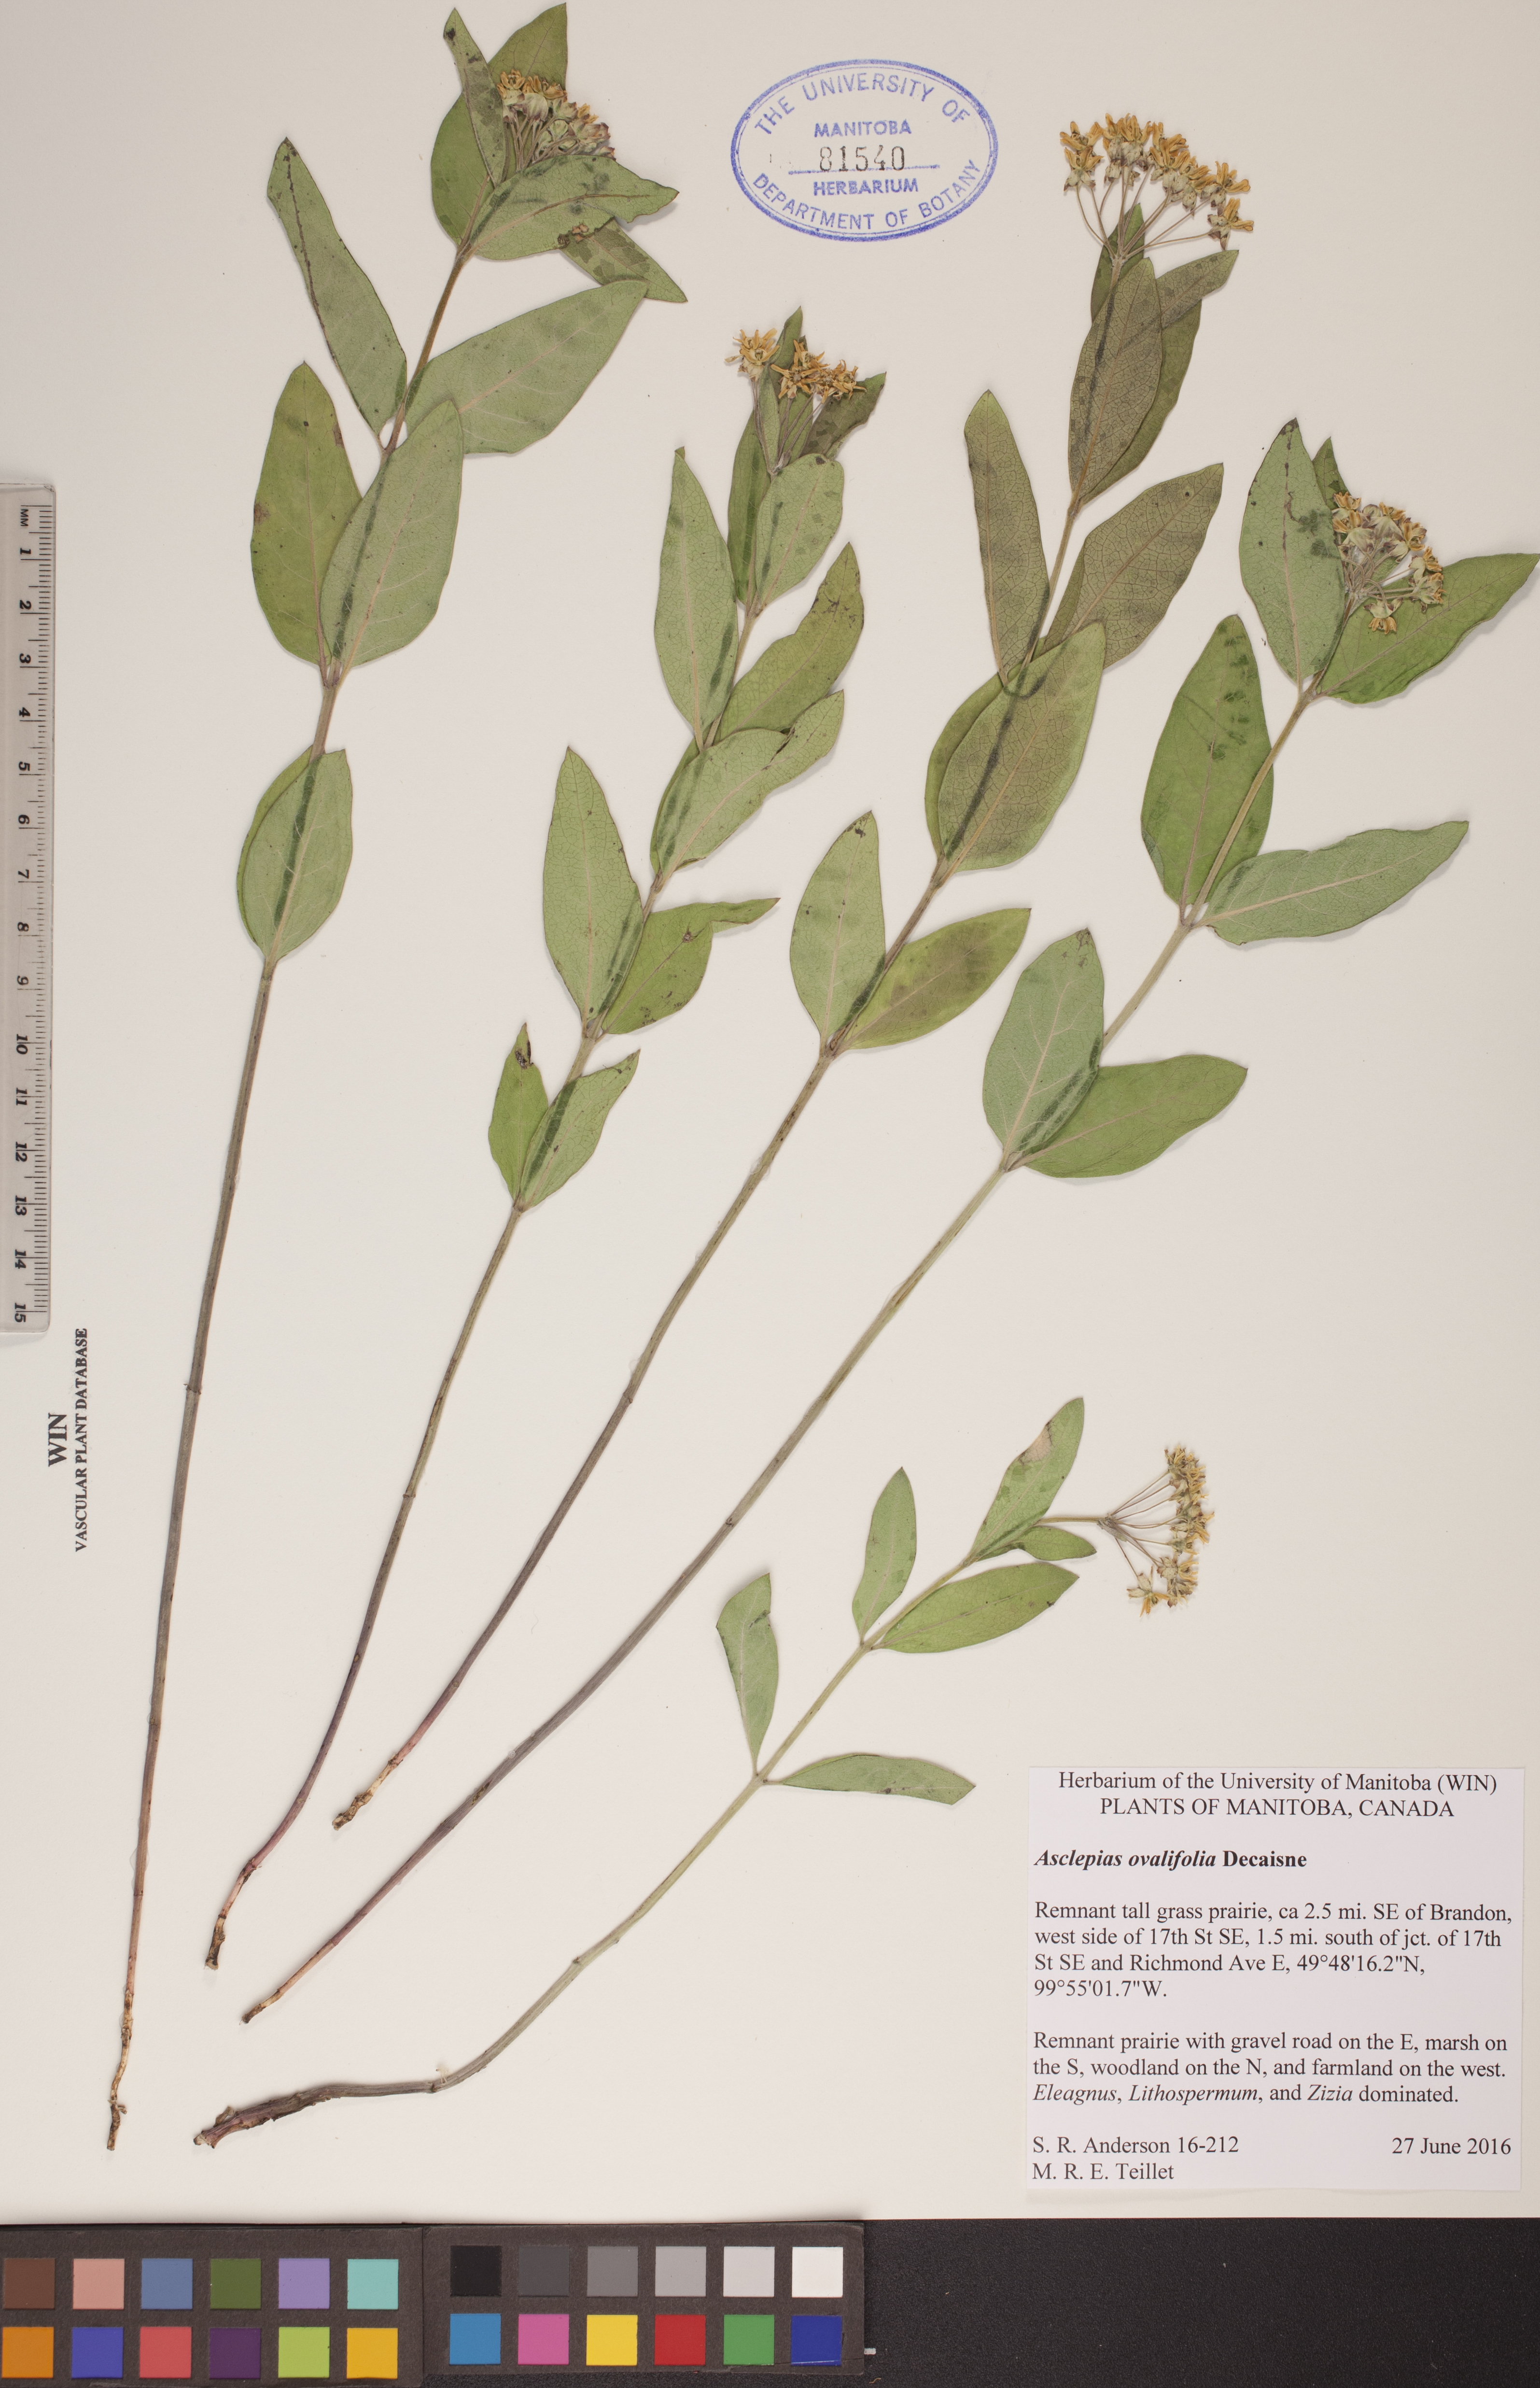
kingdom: Plantae
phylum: Tracheophyta
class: Magnoliopsida
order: Gentianales
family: Apocynaceae
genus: Asclepias
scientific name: Asclepias ovalifolia
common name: Dwarf milkweed
